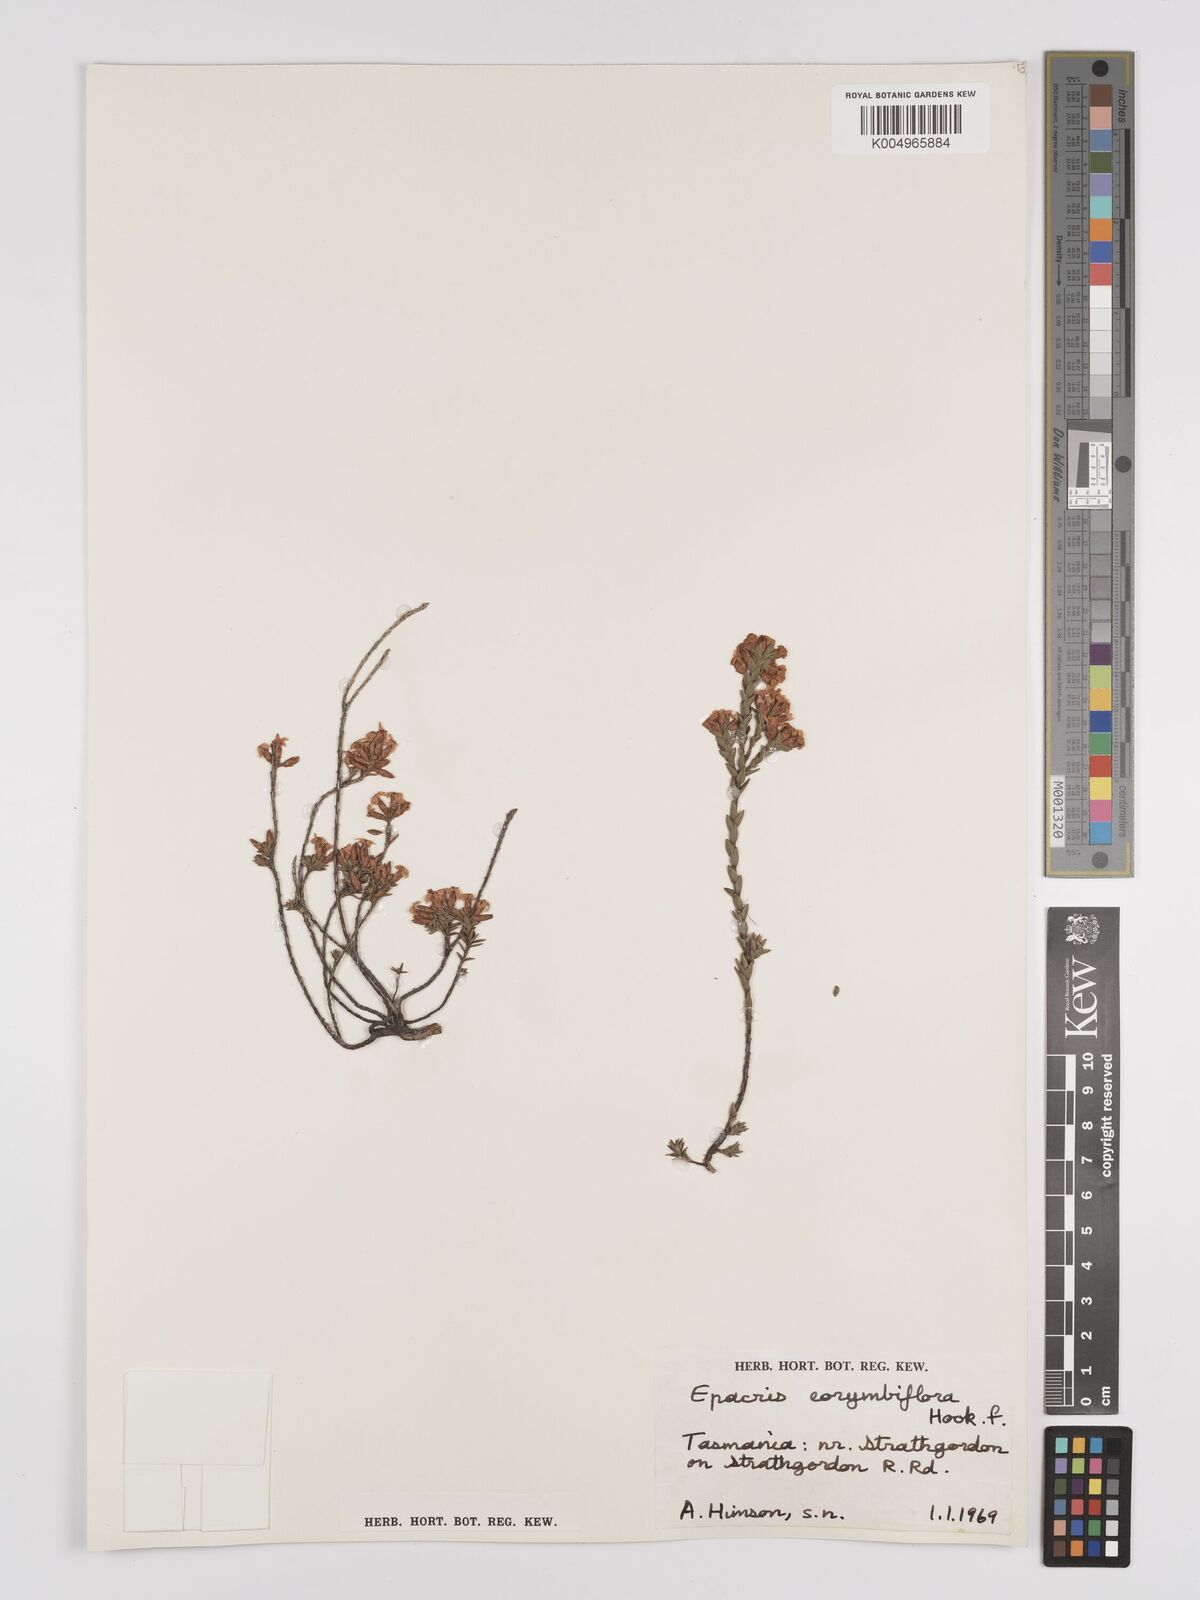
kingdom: Plantae
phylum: Tracheophyta
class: Magnoliopsida
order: Ericales
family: Ericaceae
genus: Epacris
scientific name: Epacris corymbiflora
